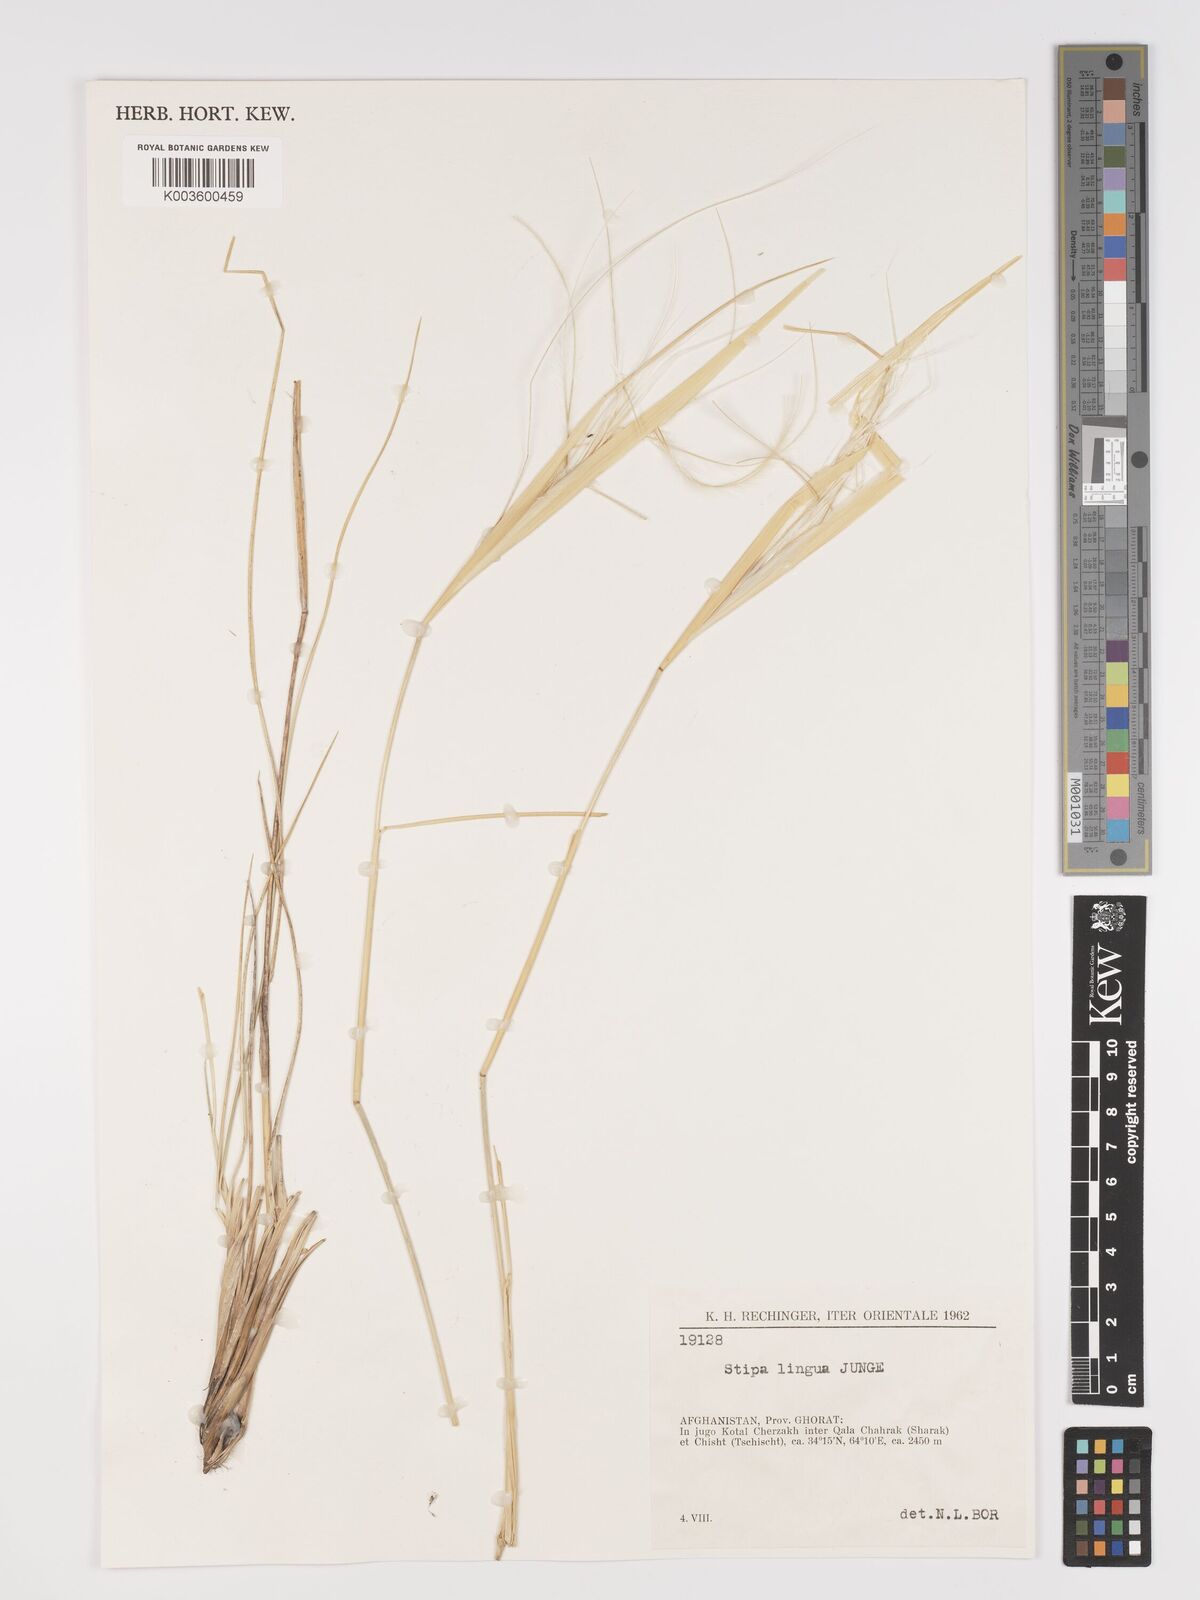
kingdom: Plantae
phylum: Tracheophyta
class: Liliopsida
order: Poales
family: Poaceae
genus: Stipa
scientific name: Stipa lingua
